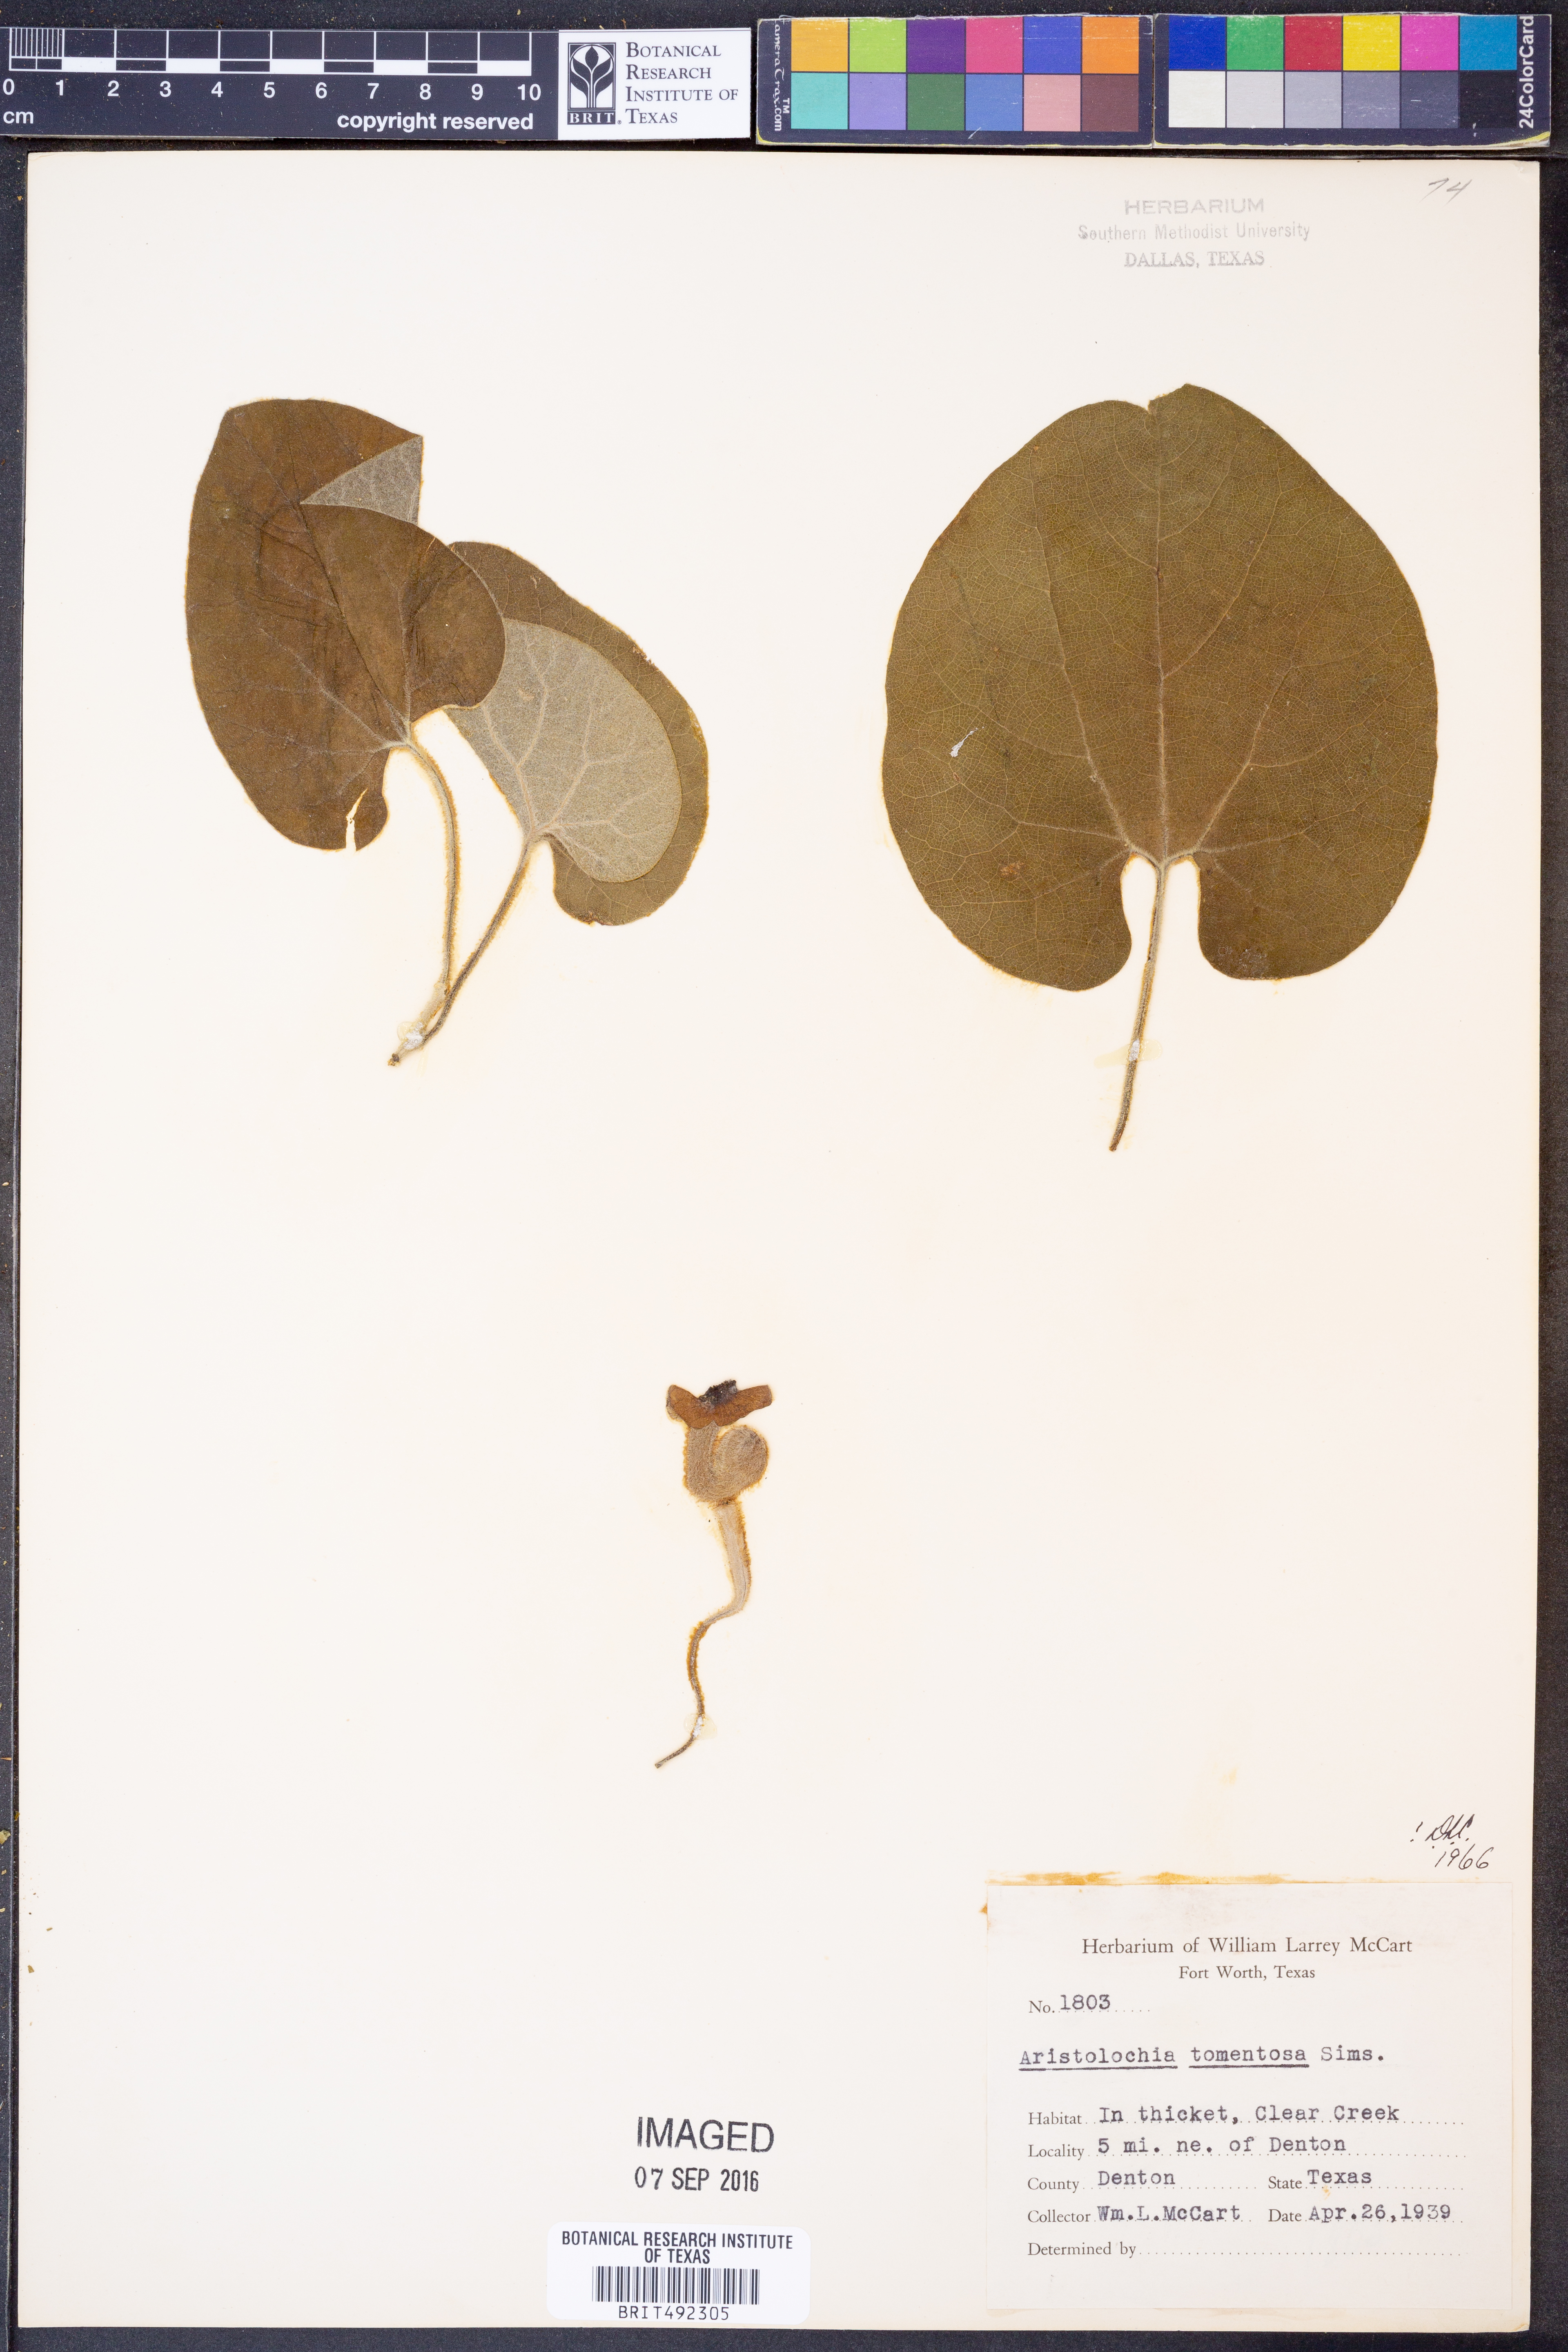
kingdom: Plantae
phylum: Tracheophyta
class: Magnoliopsida
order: Piperales
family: Aristolochiaceae
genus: Isotrema
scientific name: Isotrema tomentosum
